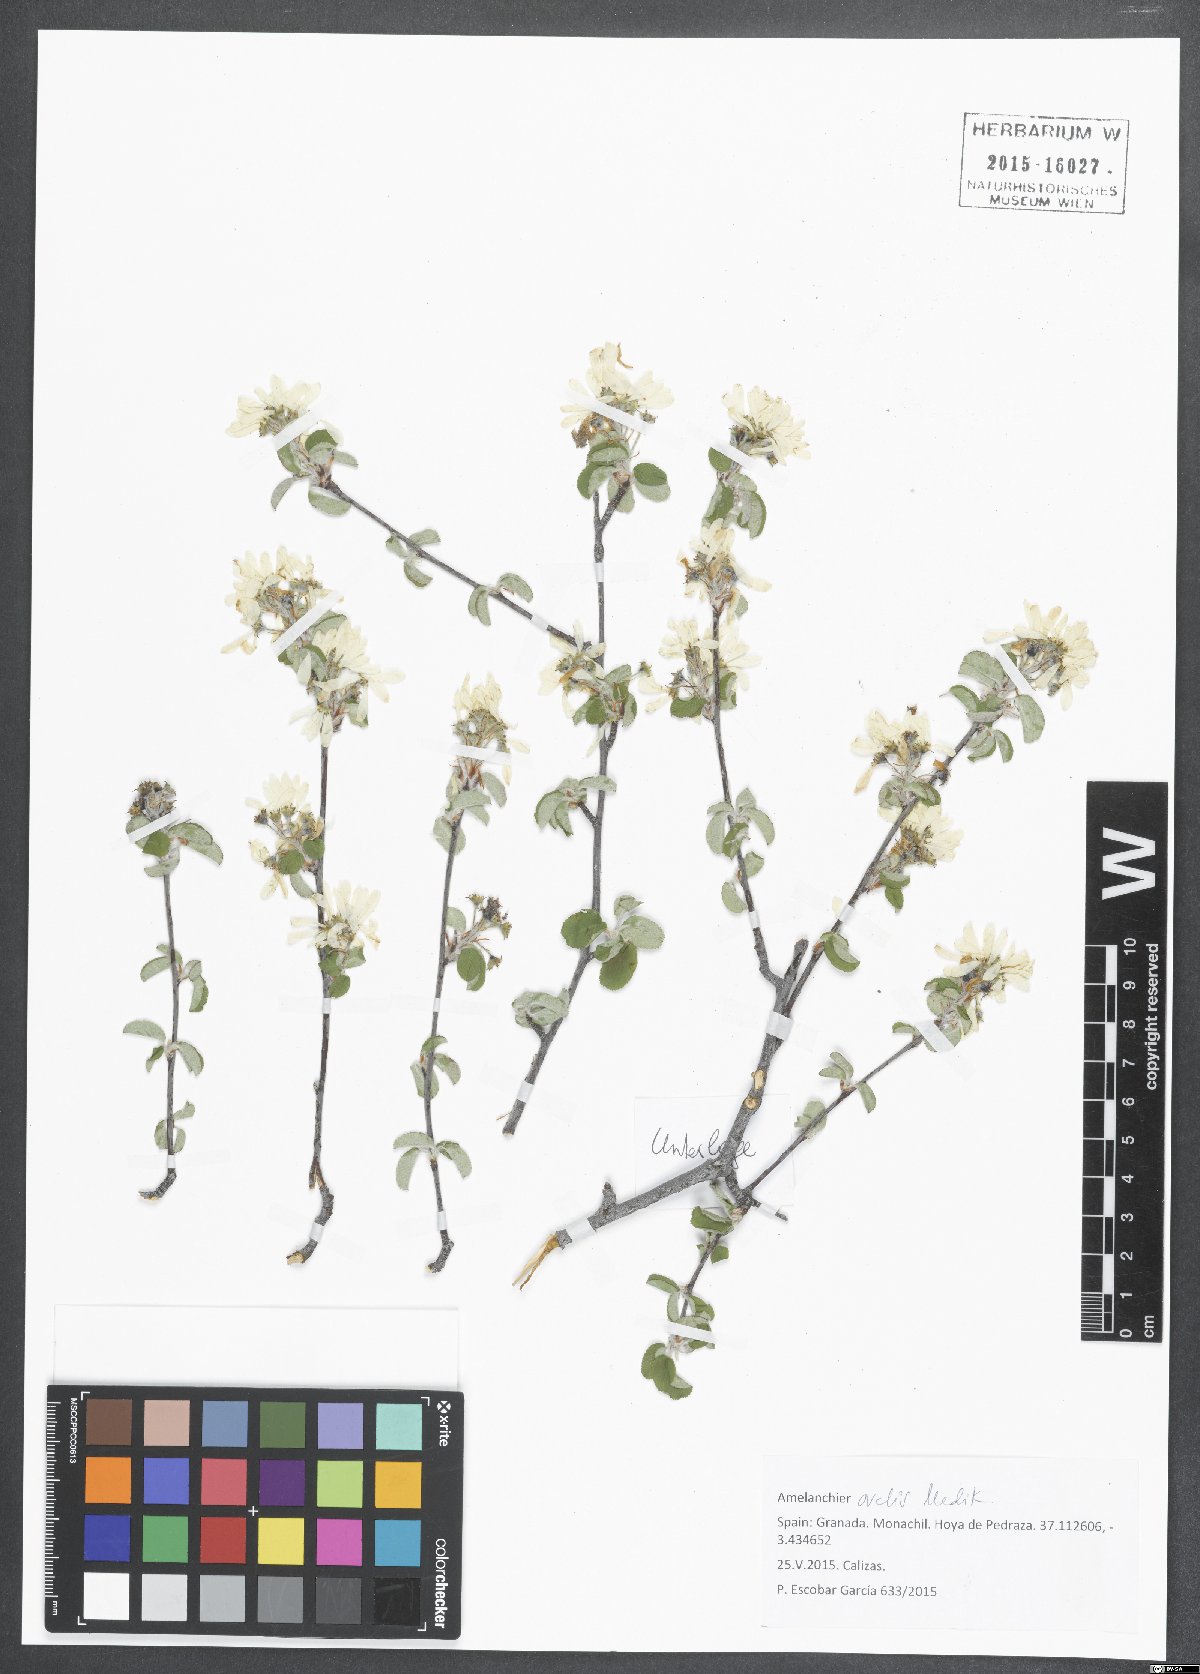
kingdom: Plantae
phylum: Tracheophyta
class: Magnoliopsida
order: Rosales
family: Rosaceae
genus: Amelanchier
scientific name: Amelanchier ovalis
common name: Serviceberry
